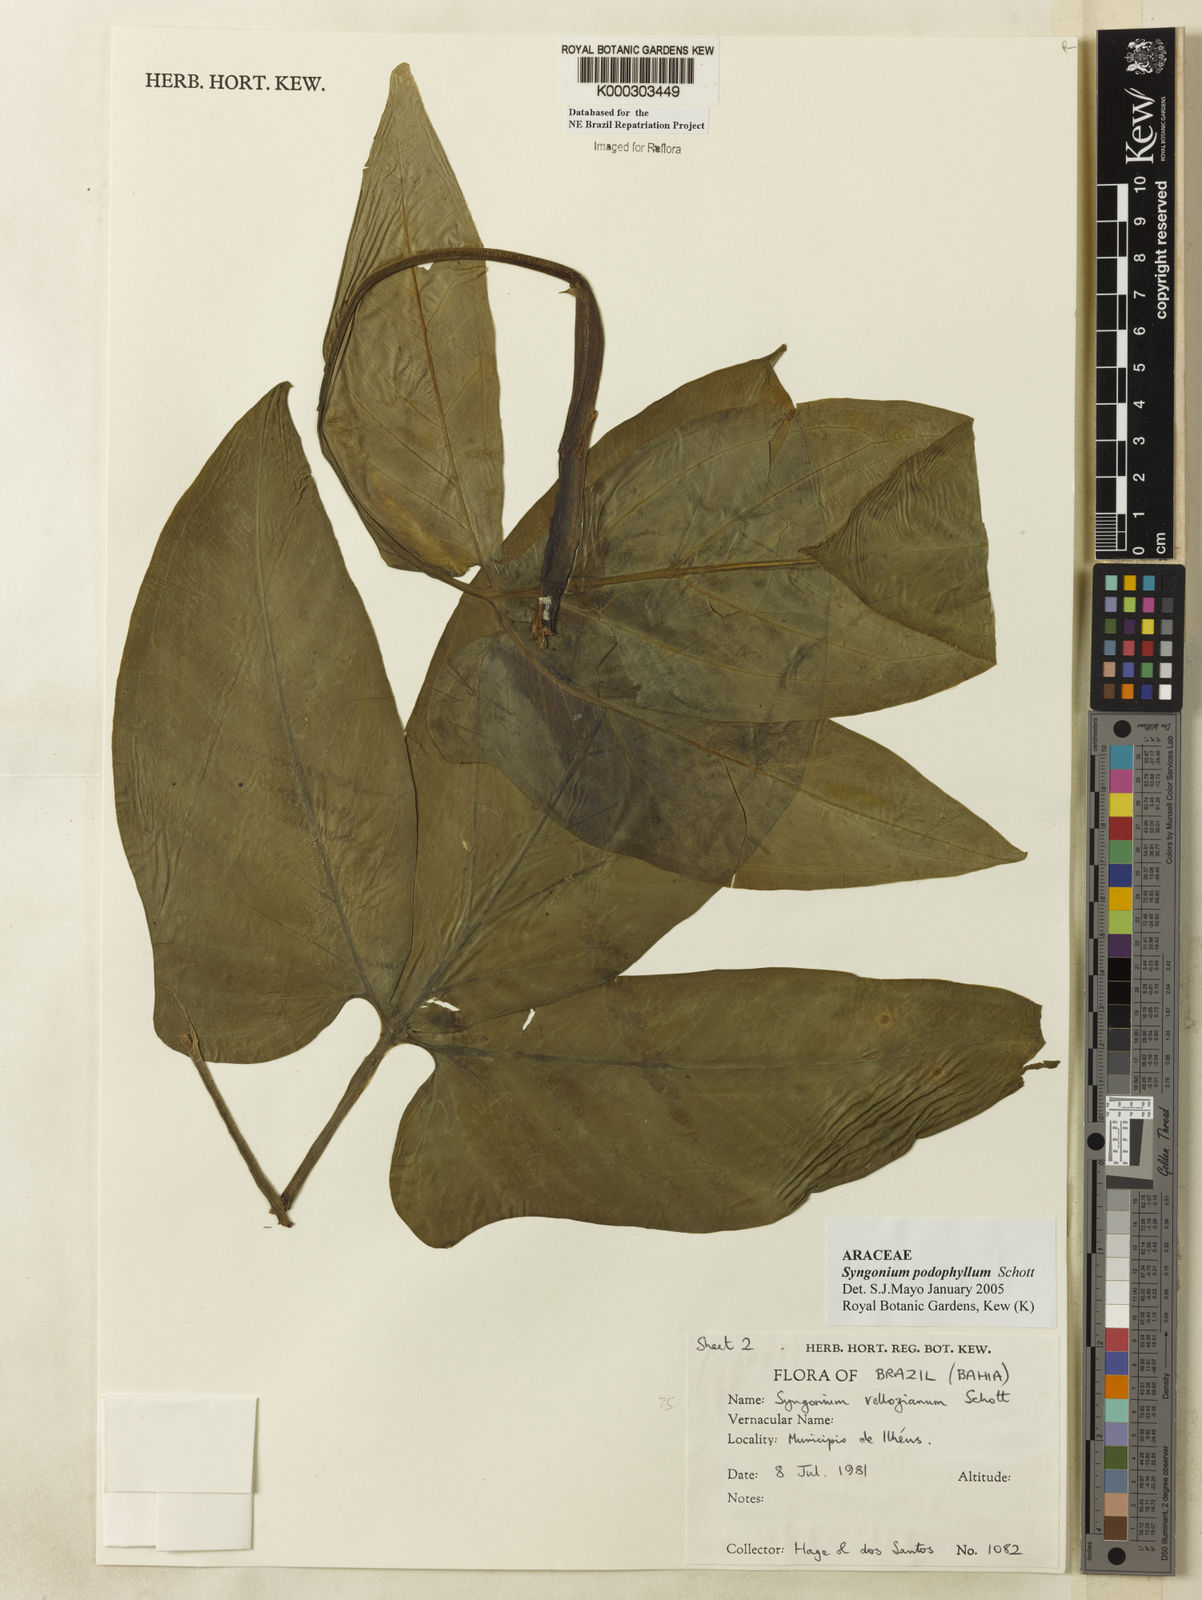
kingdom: Plantae
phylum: Tracheophyta
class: Liliopsida
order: Alismatales
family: Araceae
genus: Syngonium
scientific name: Syngonium podophyllum
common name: American evergreen
